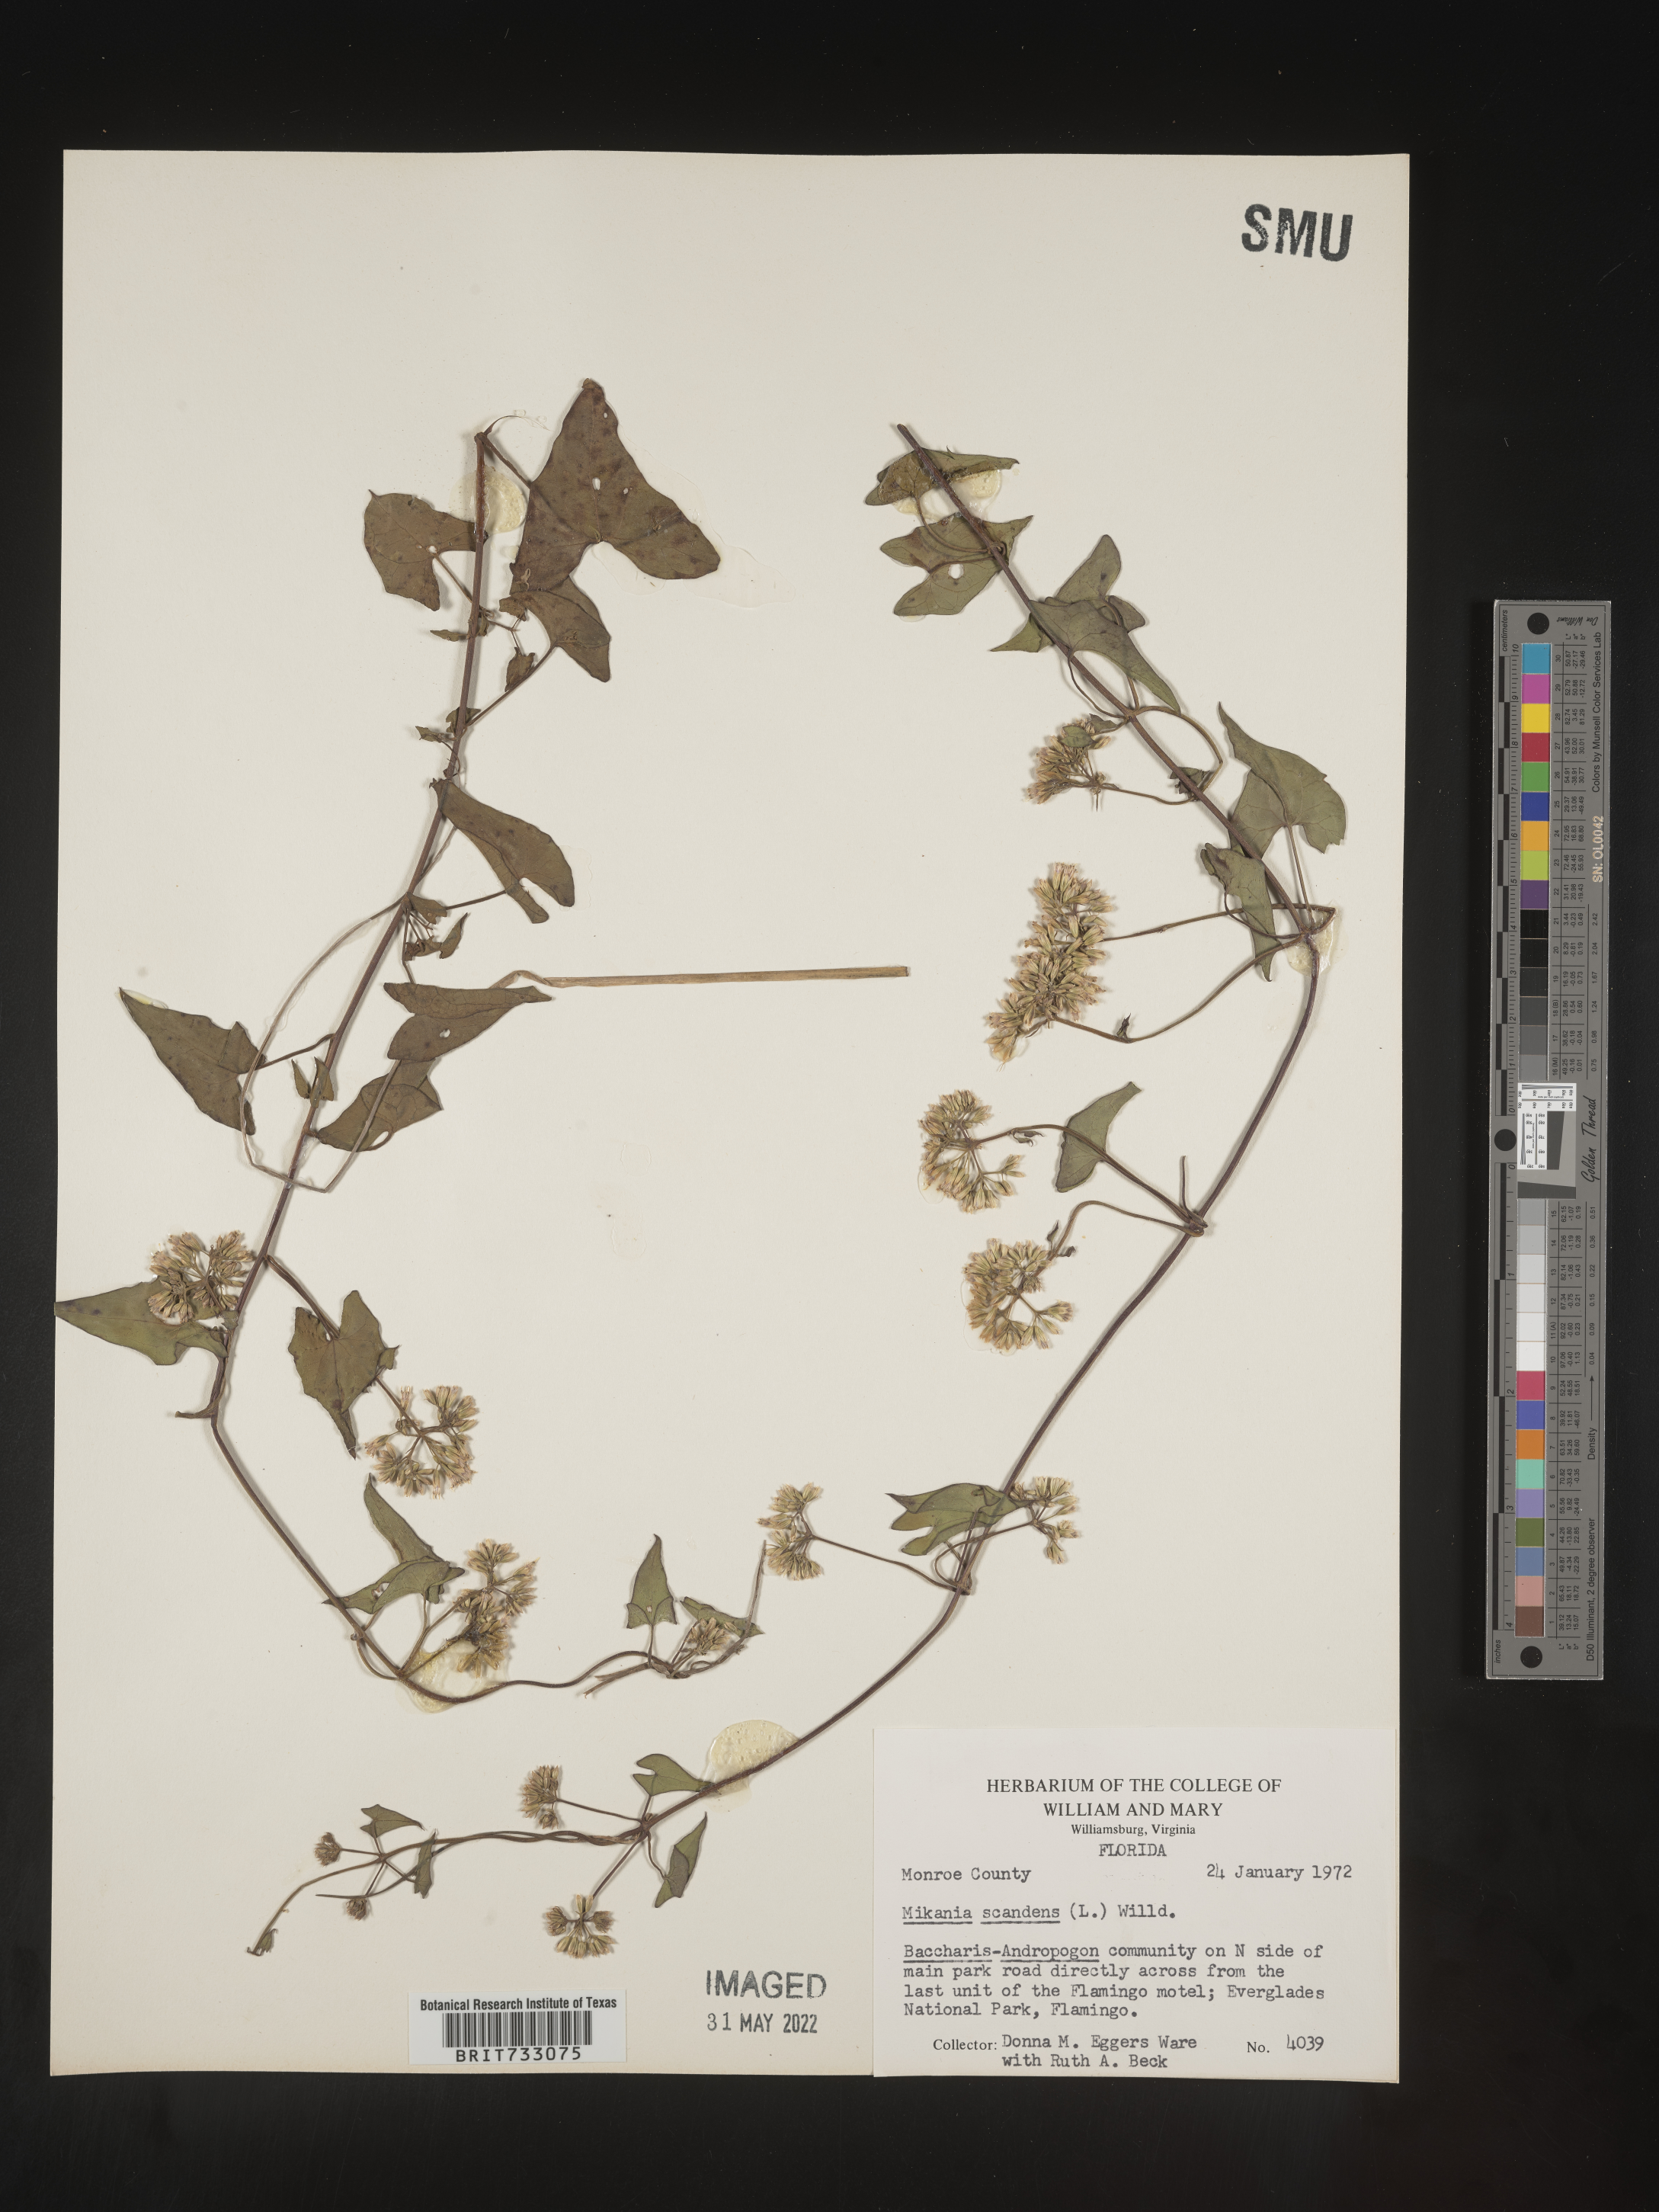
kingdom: Plantae
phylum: Tracheophyta
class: Magnoliopsida
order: Asterales
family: Asteraceae
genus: Mikania
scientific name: Mikania scandens
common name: Climbing hempvine
